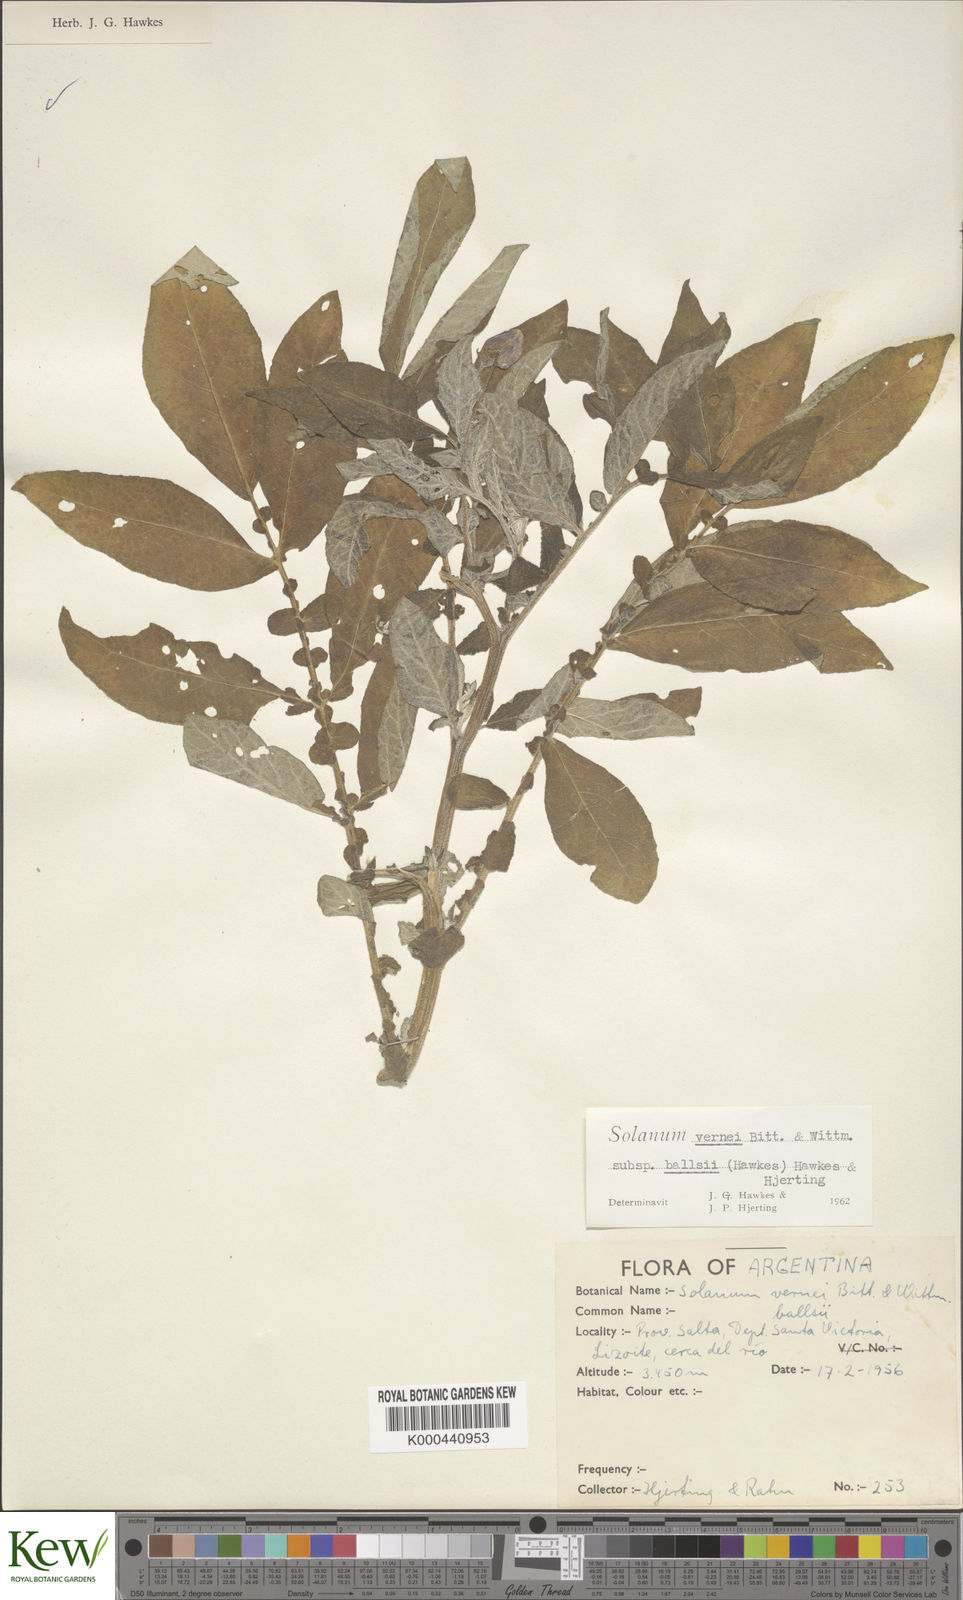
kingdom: Plantae
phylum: Tracheophyta
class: Magnoliopsida
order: Solanales
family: Solanaceae
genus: Solanum
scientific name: Solanum vernei
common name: Purple potato
